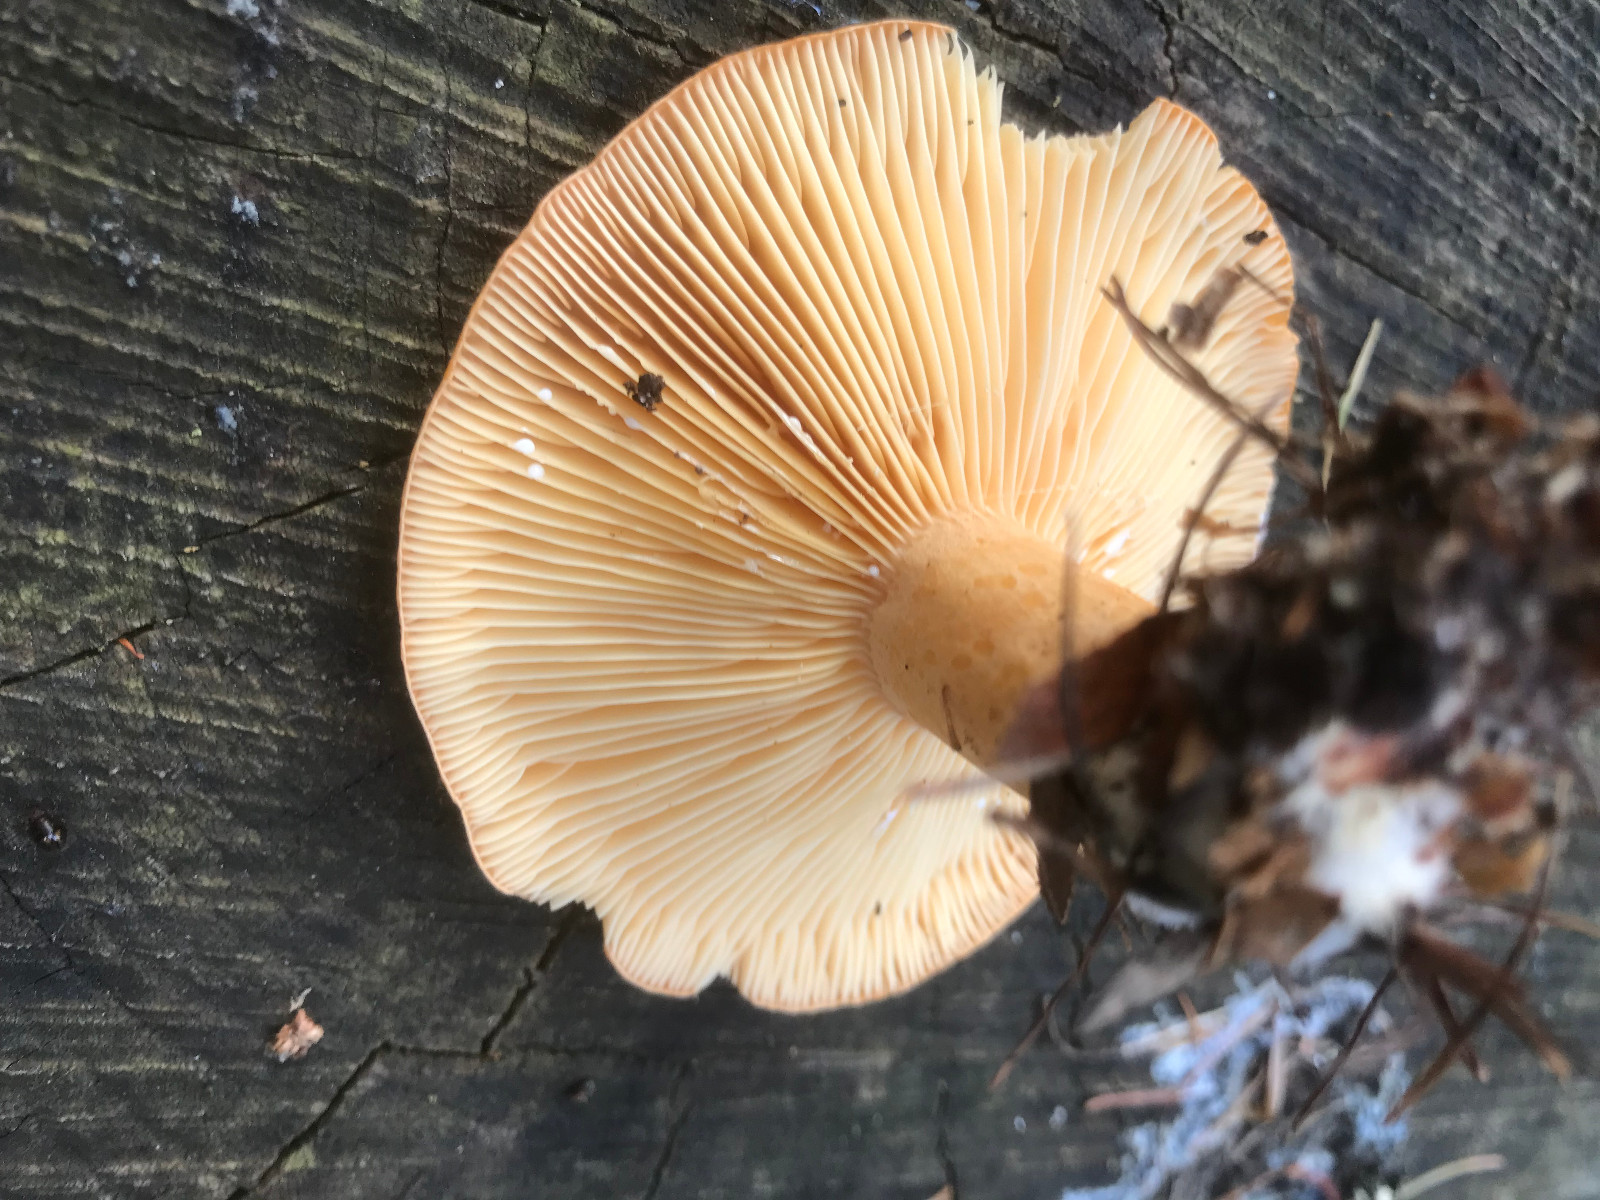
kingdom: Fungi
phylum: Basidiomycota
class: Agaricomycetes
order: Russulales
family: Russulaceae
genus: Lactarius
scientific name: Lactarius
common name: mælkehat
